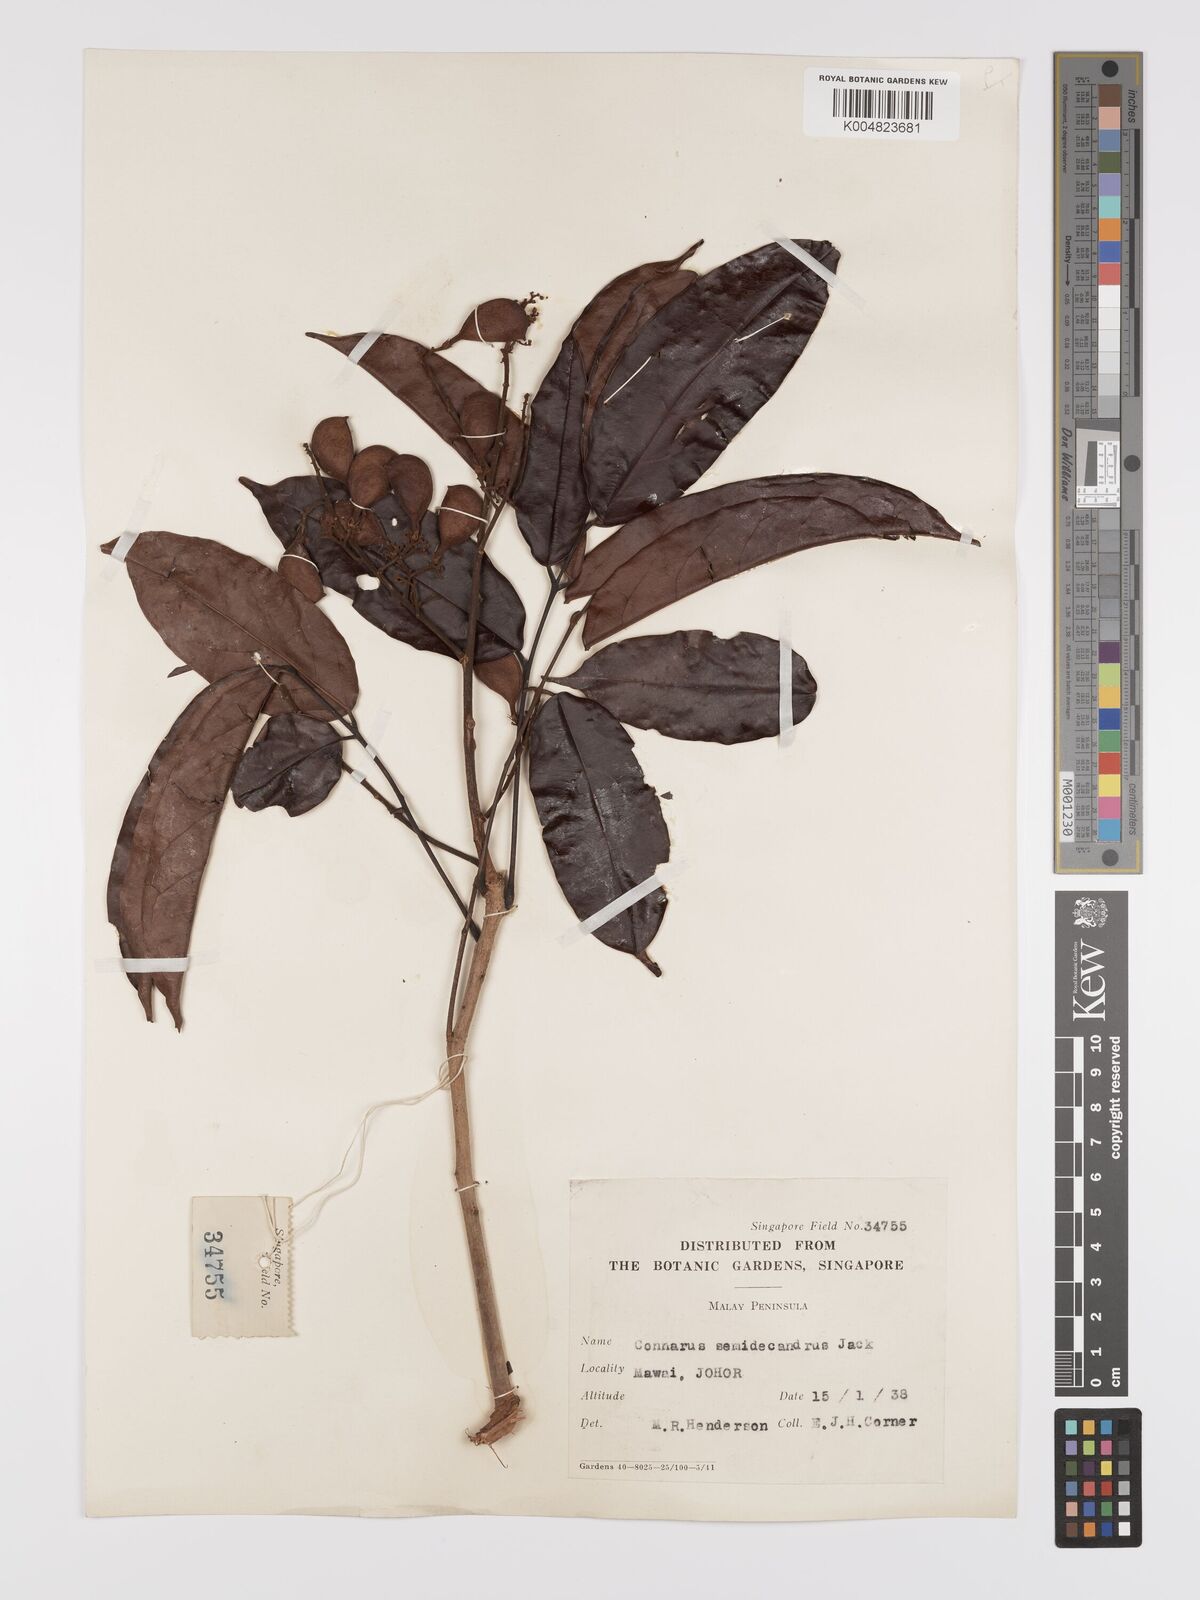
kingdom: Plantae
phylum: Tracheophyta
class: Magnoliopsida
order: Oxalidales
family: Connaraceae
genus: Connarus
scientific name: Connarus semidecandrus
